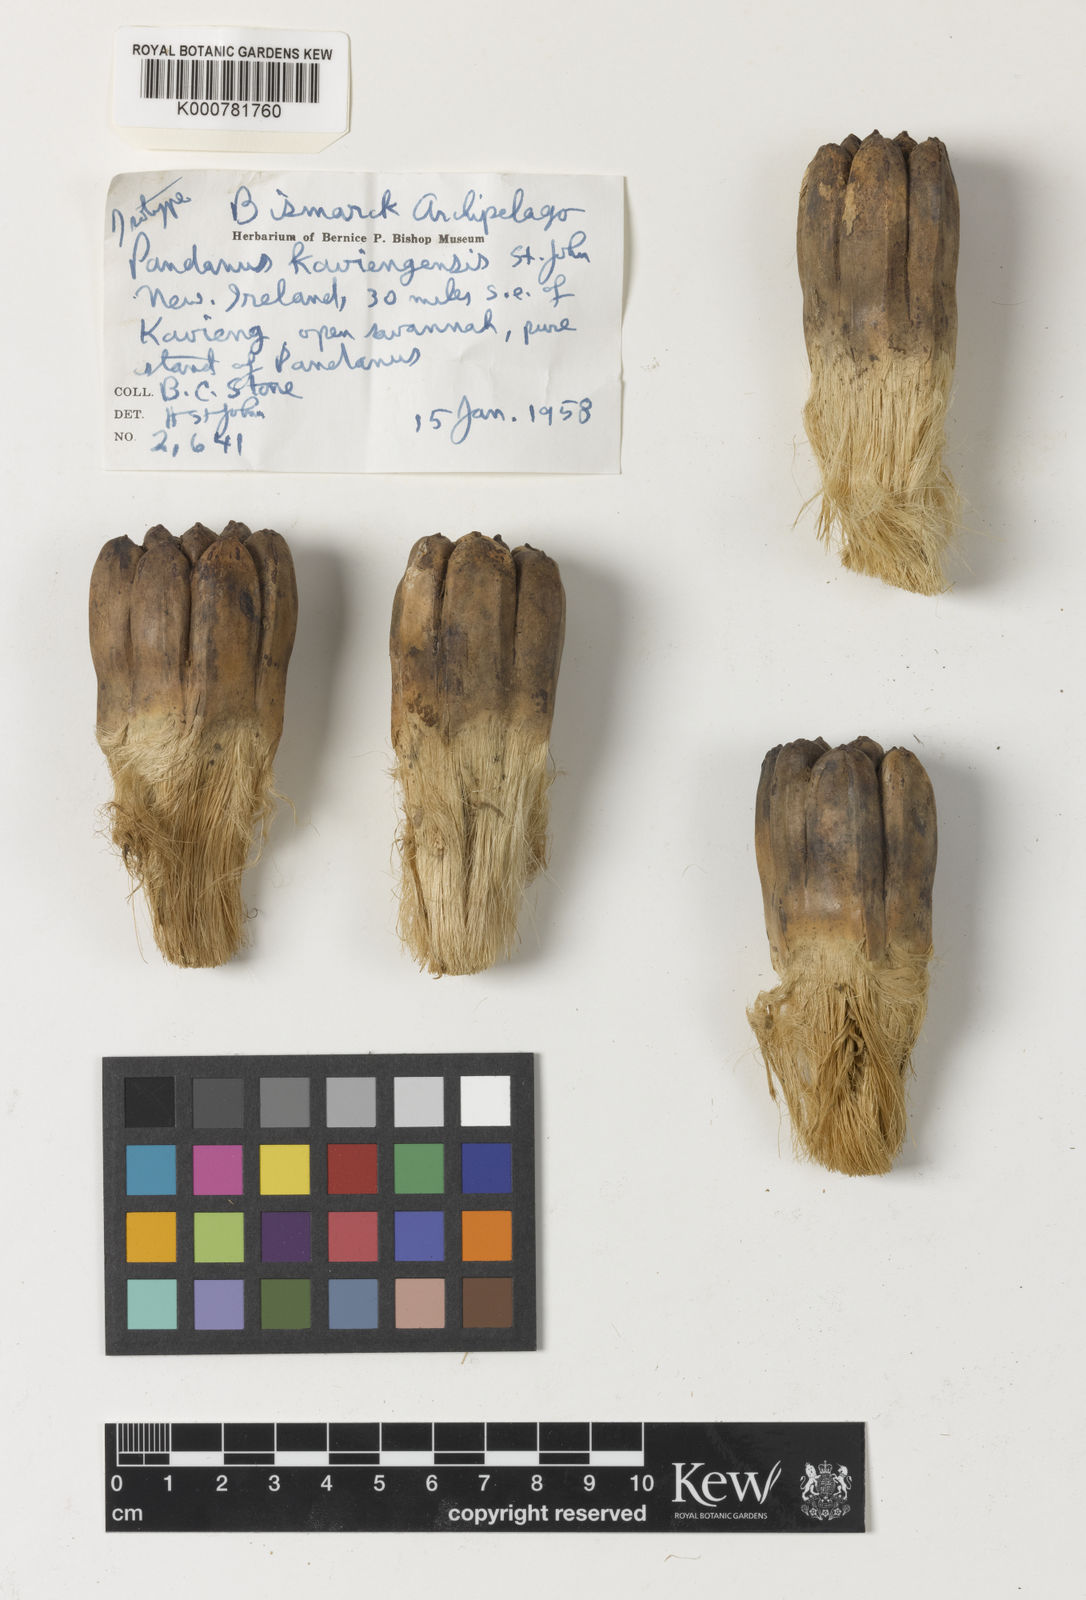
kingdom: Plantae
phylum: Tracheophyta
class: Liliopsida
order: Pandanales
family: Pandanaceae
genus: Pandanus
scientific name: Pandanus kaviengensis
